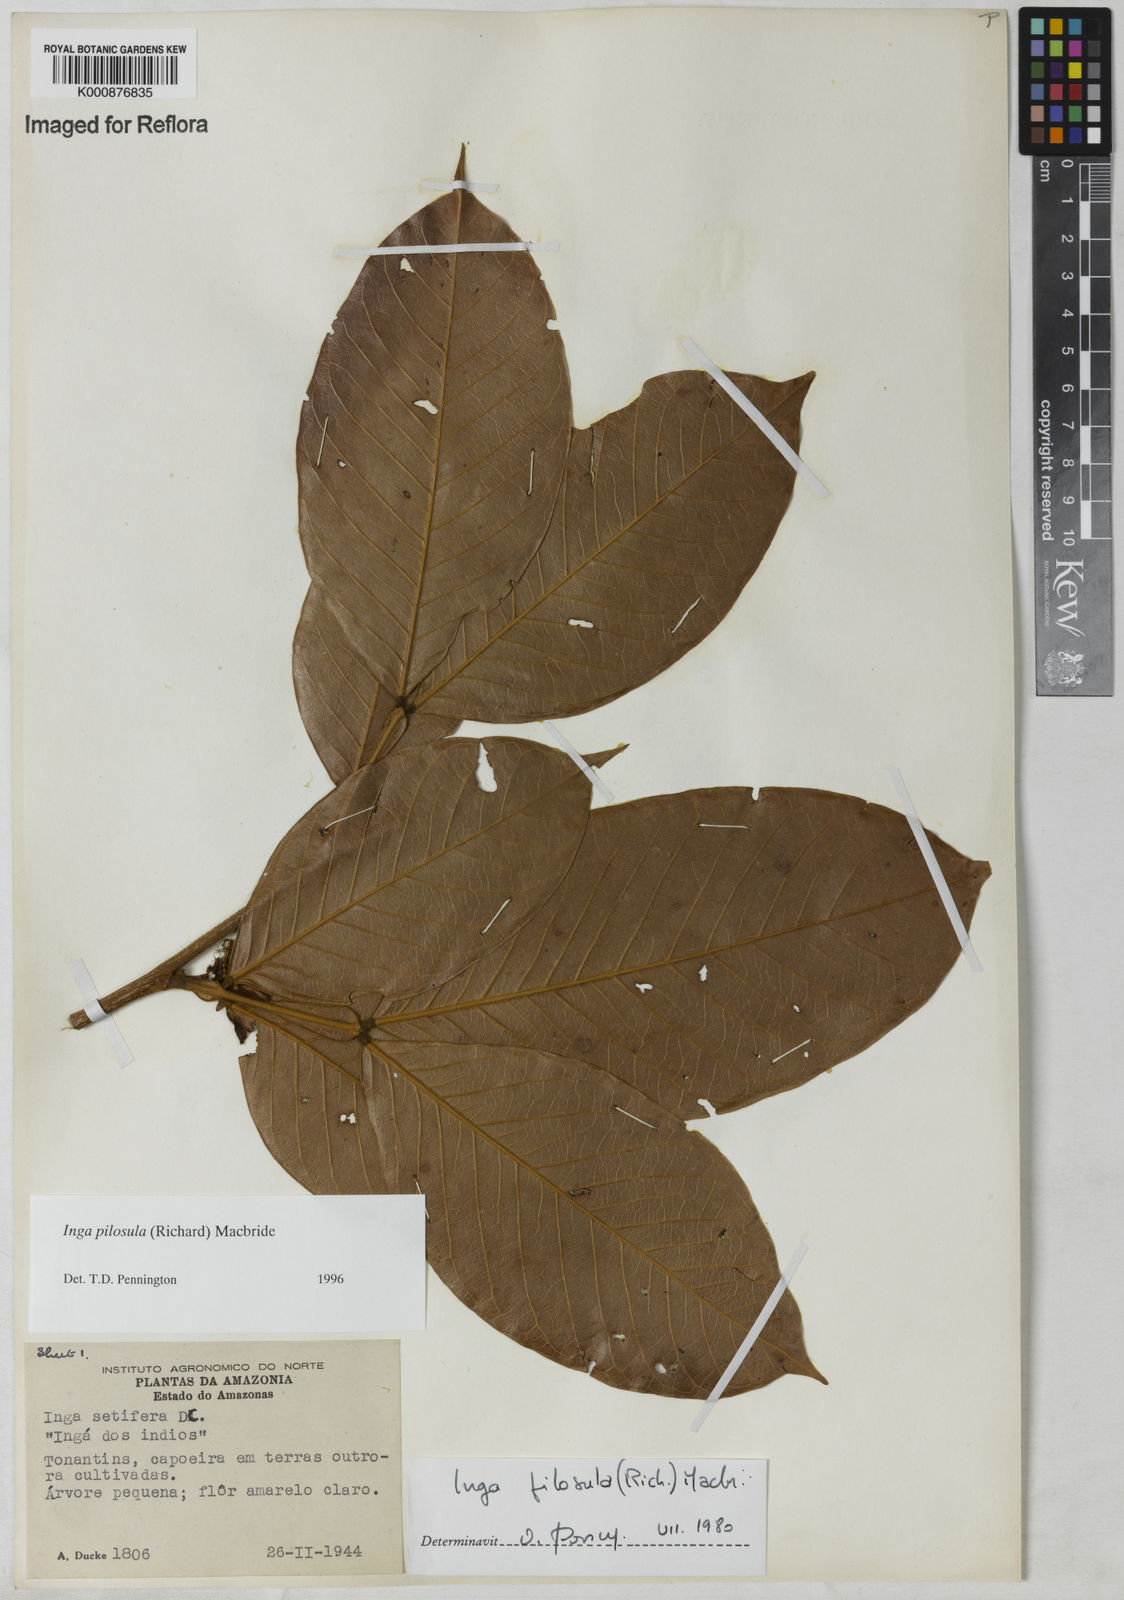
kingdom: Plantae
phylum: Tracheophyta
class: Magnoliopsida
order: Fabales
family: Fabaceae
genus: Inga
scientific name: Inga pilosula
